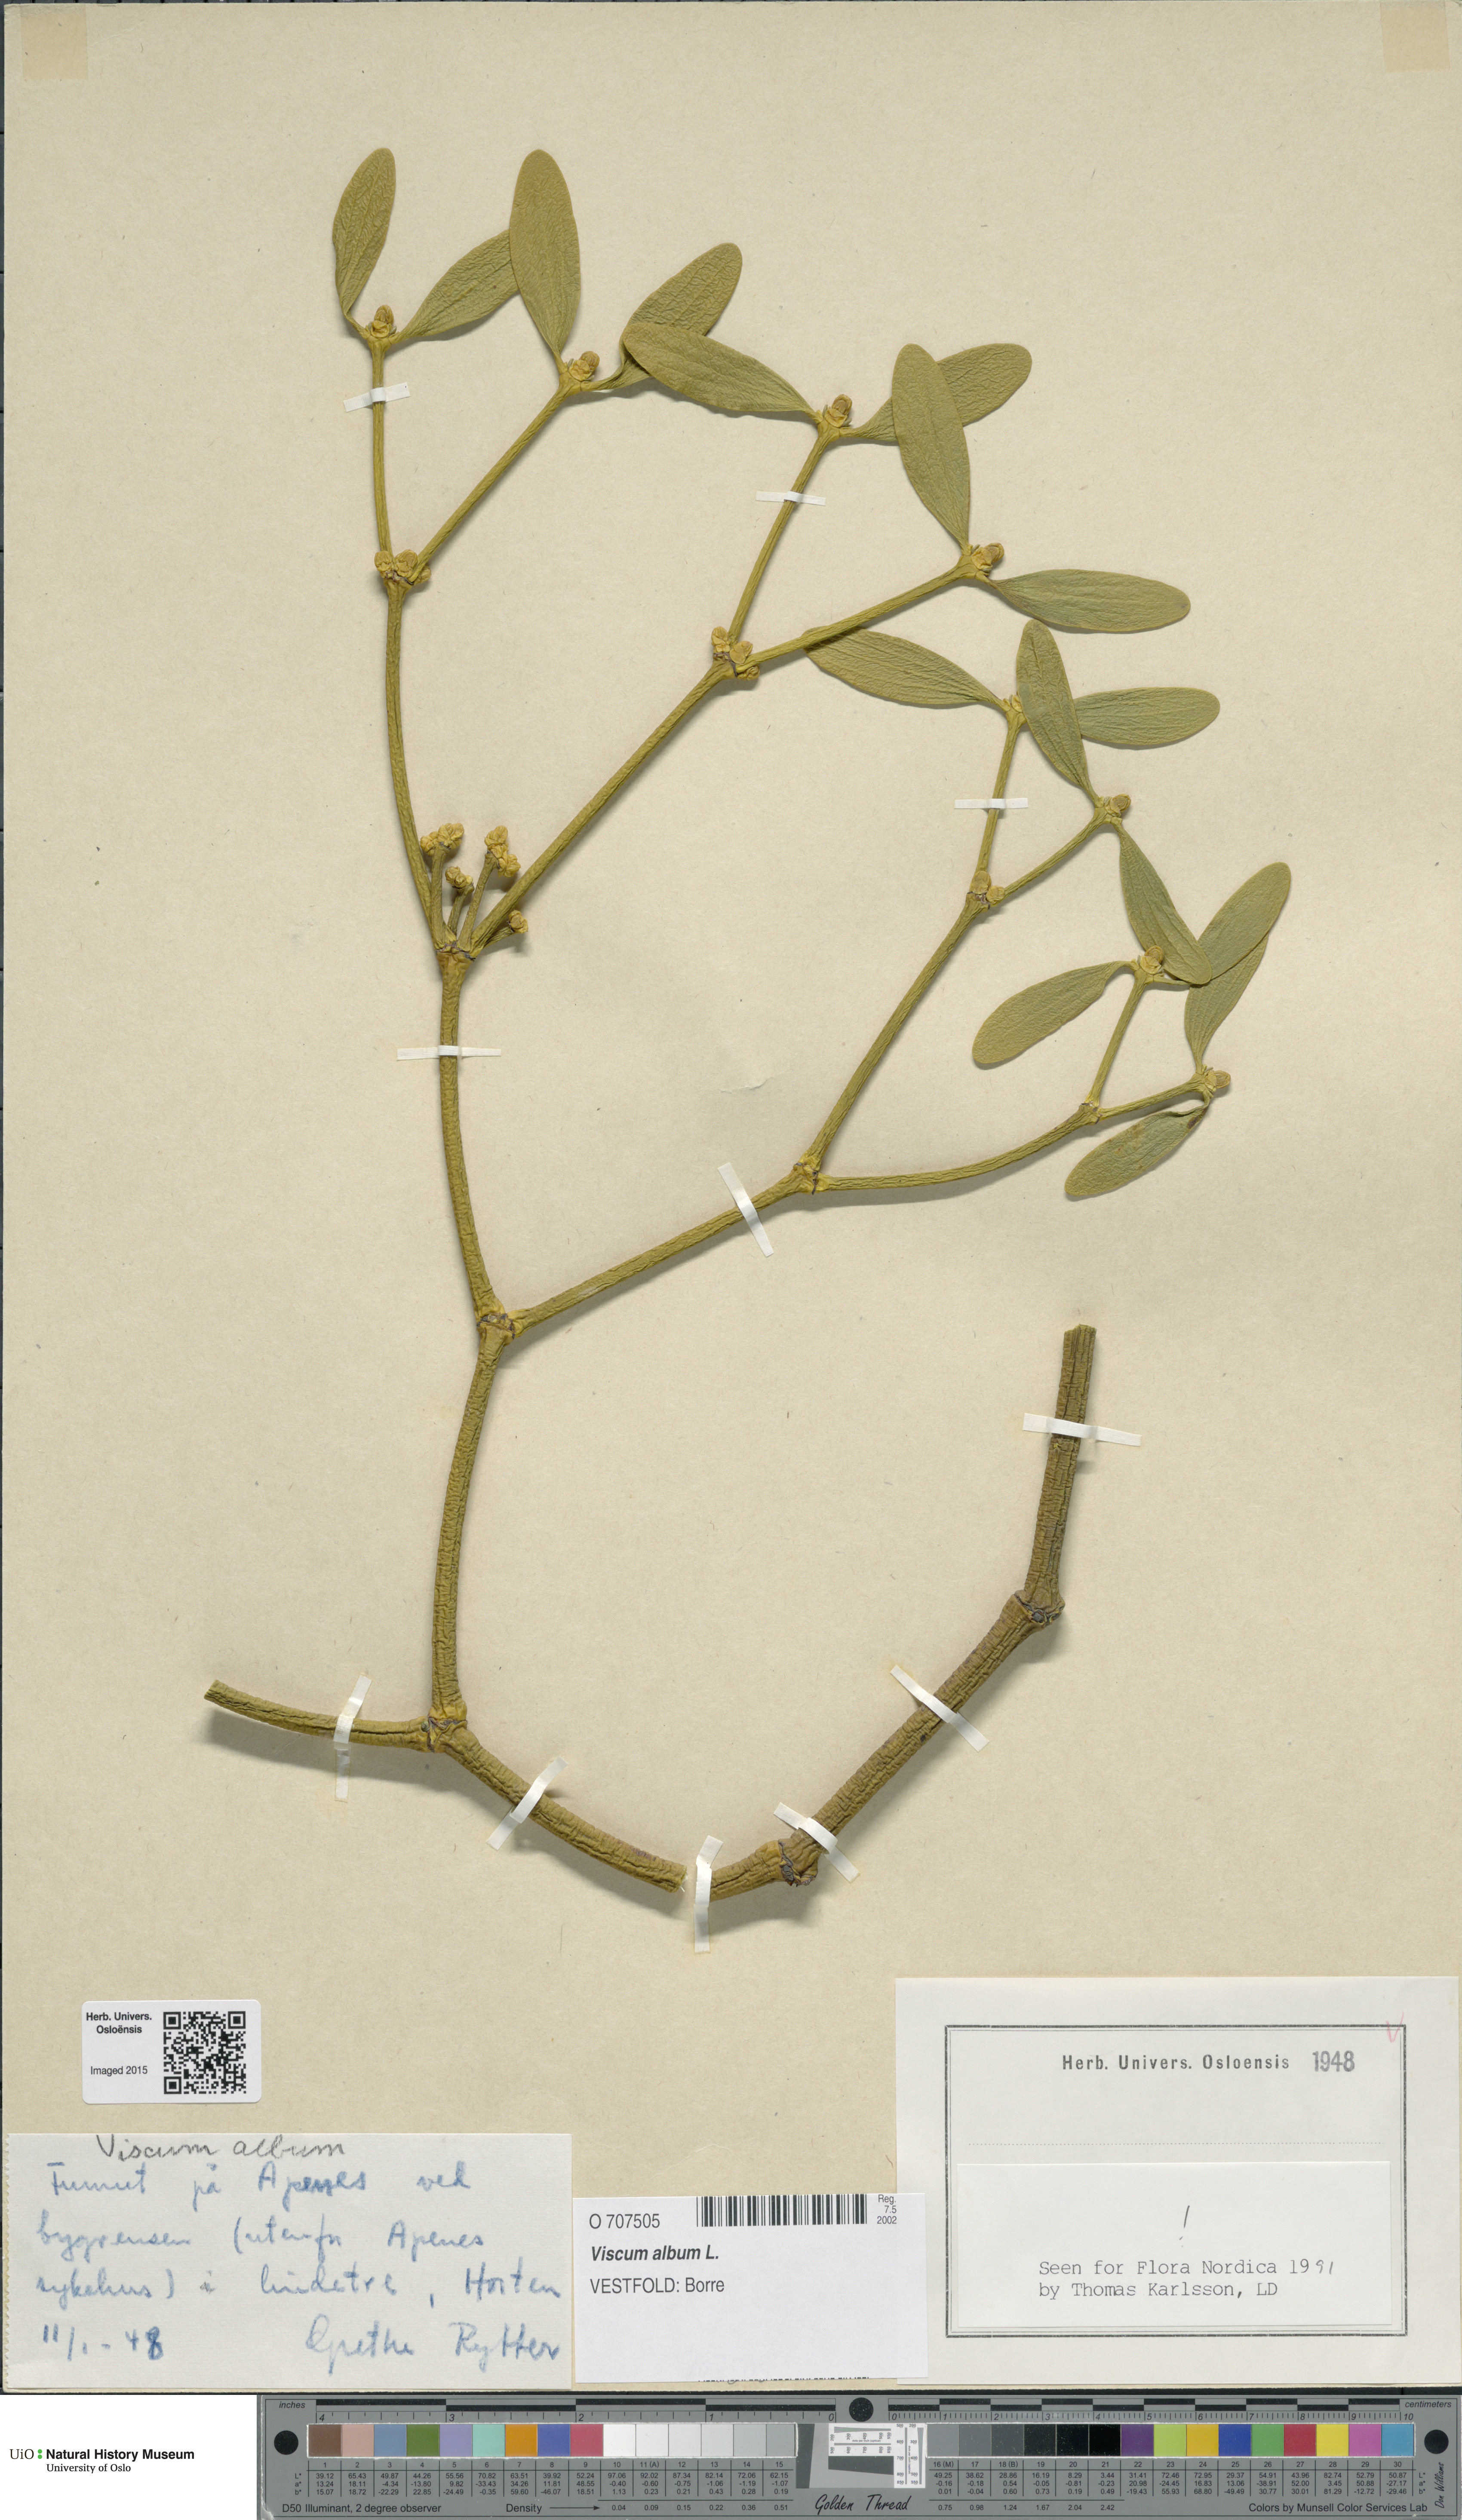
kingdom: Plantae
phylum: Tracheophyta
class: Magnoliopsida
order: Santalales
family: Viscaceae
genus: Viscum
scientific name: Viscum album
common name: Mistletoe
